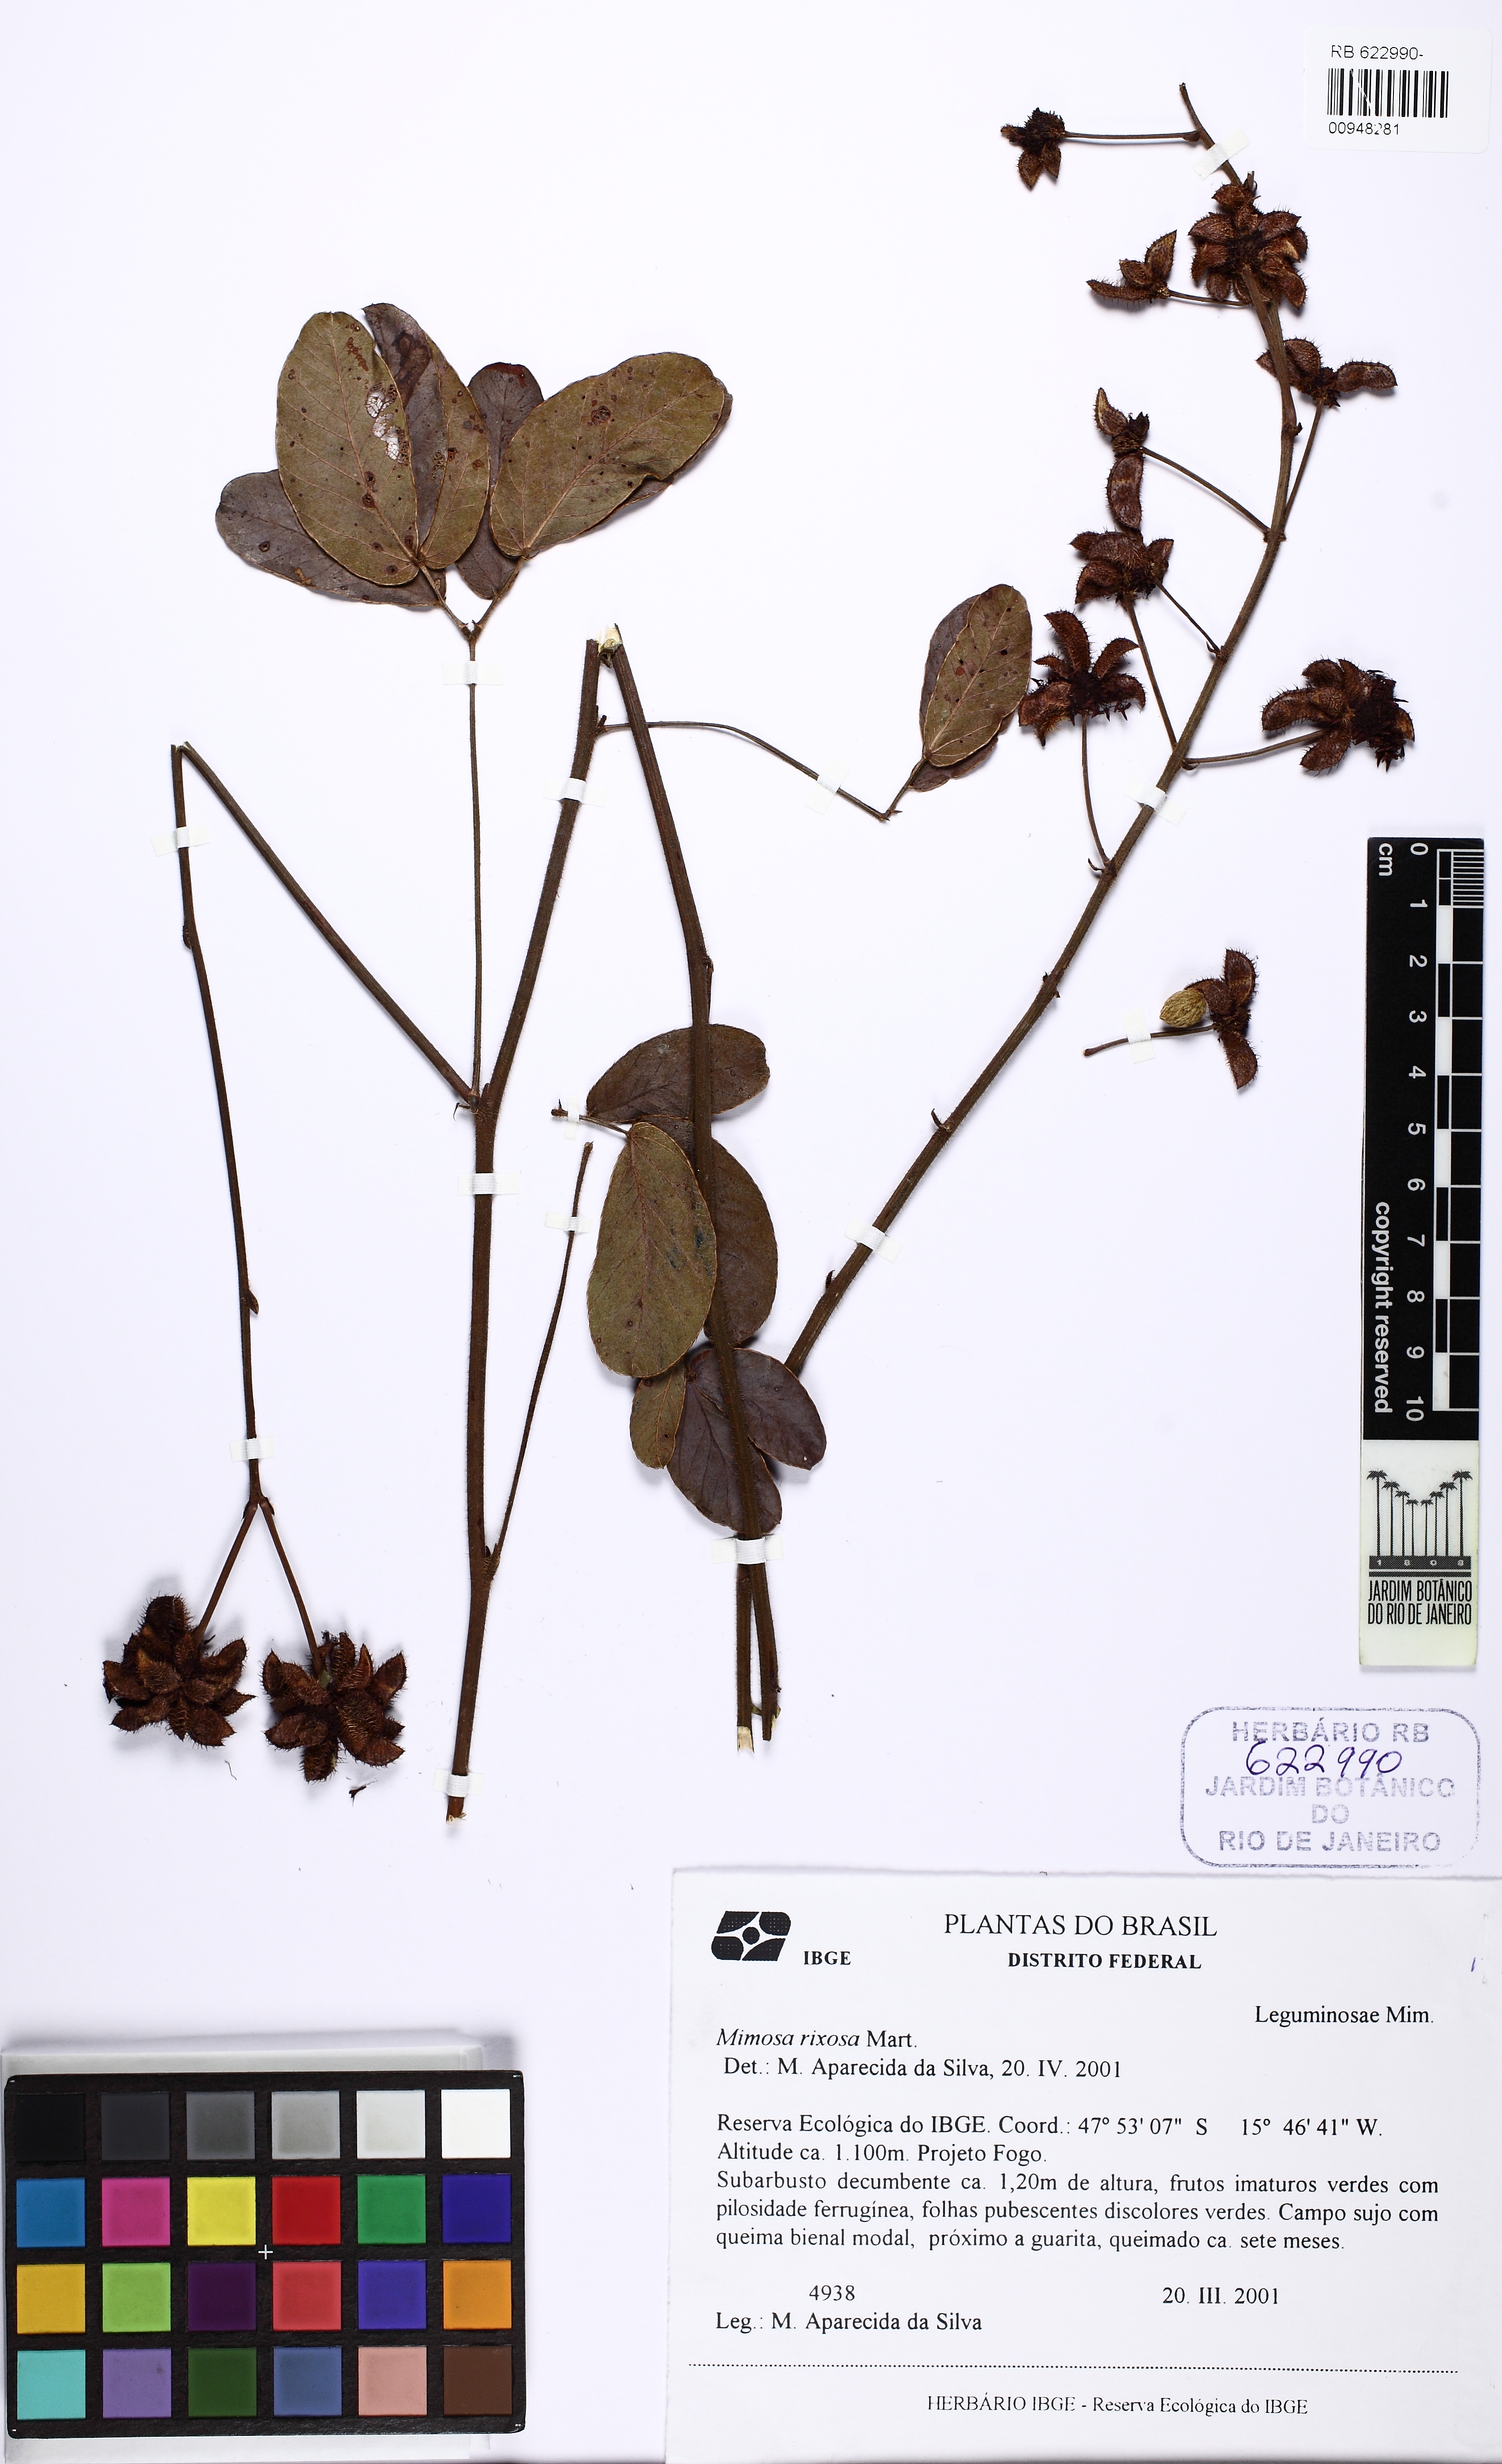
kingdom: Plantae
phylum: Tracheophyta
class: Magnoliopsida
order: Fabales
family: Fabaceae
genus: Mimosa
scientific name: Mimosa debilis
